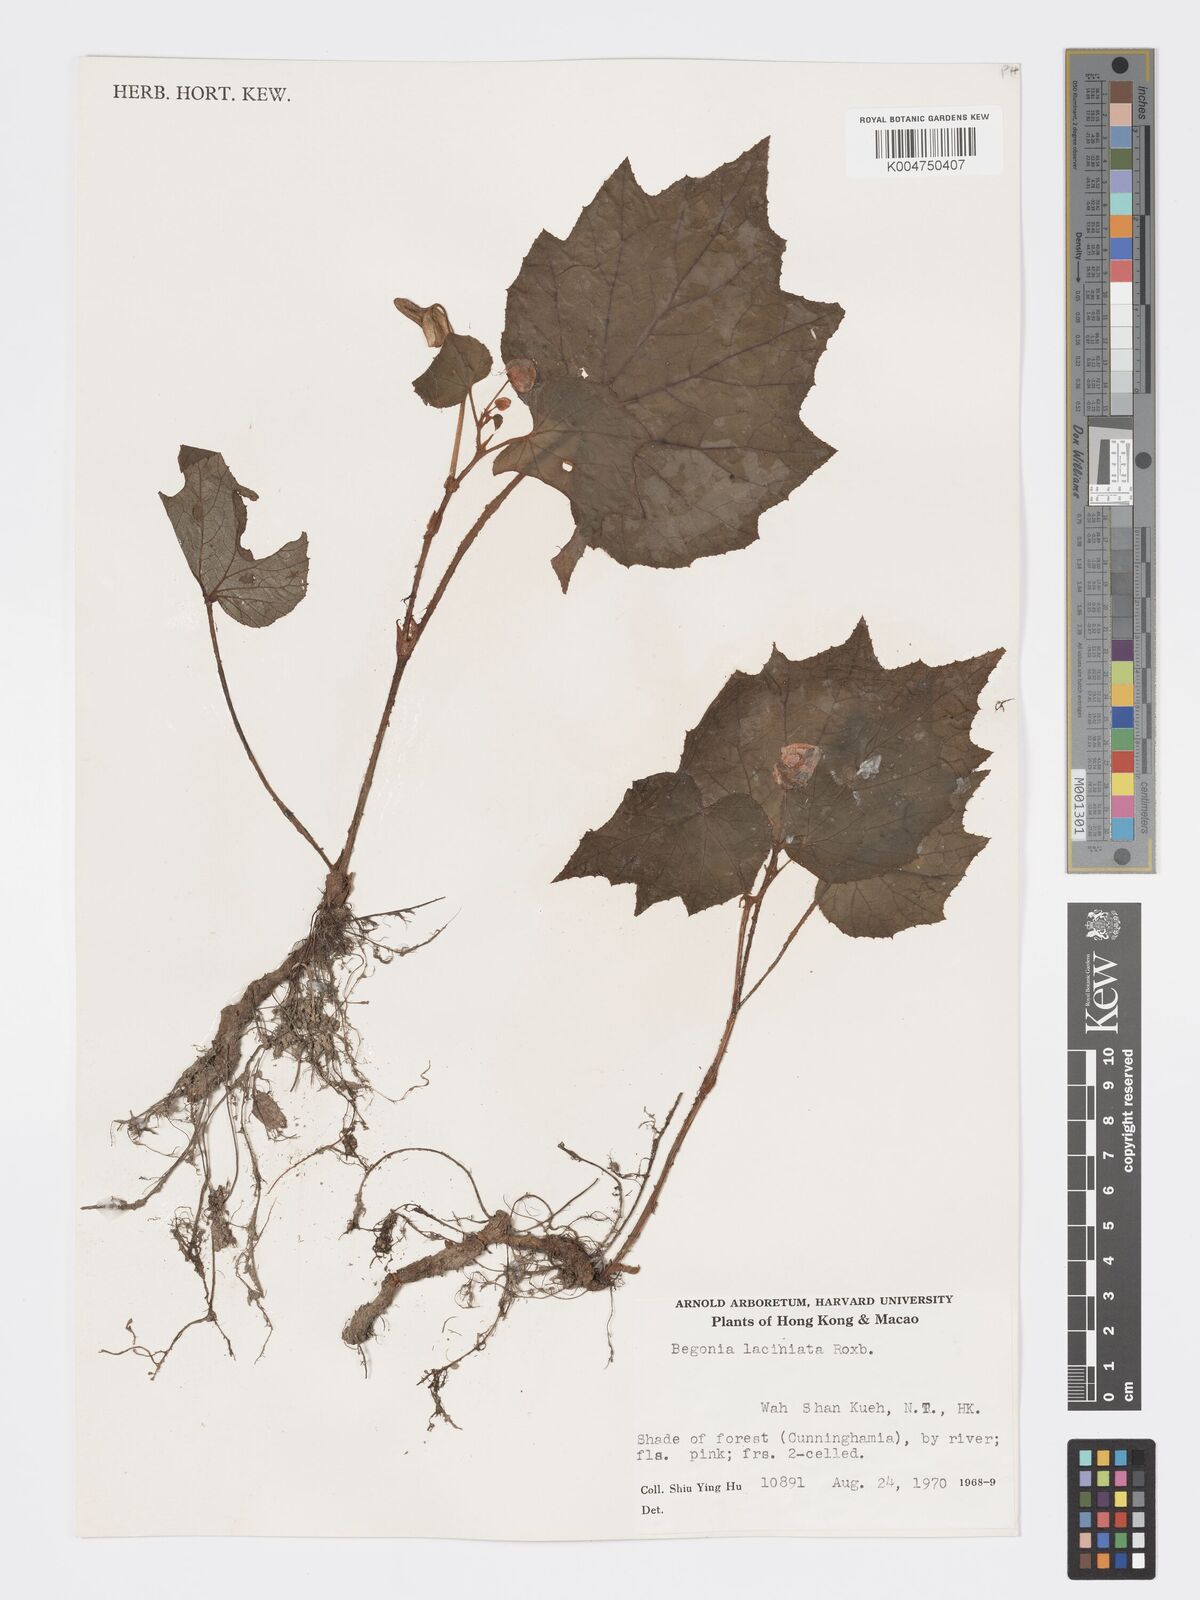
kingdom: Plantae
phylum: Tracheophyta
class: Magnoliopsida
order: Cucurbitales
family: Begoniaceae
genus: Begonia
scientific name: Begonia
